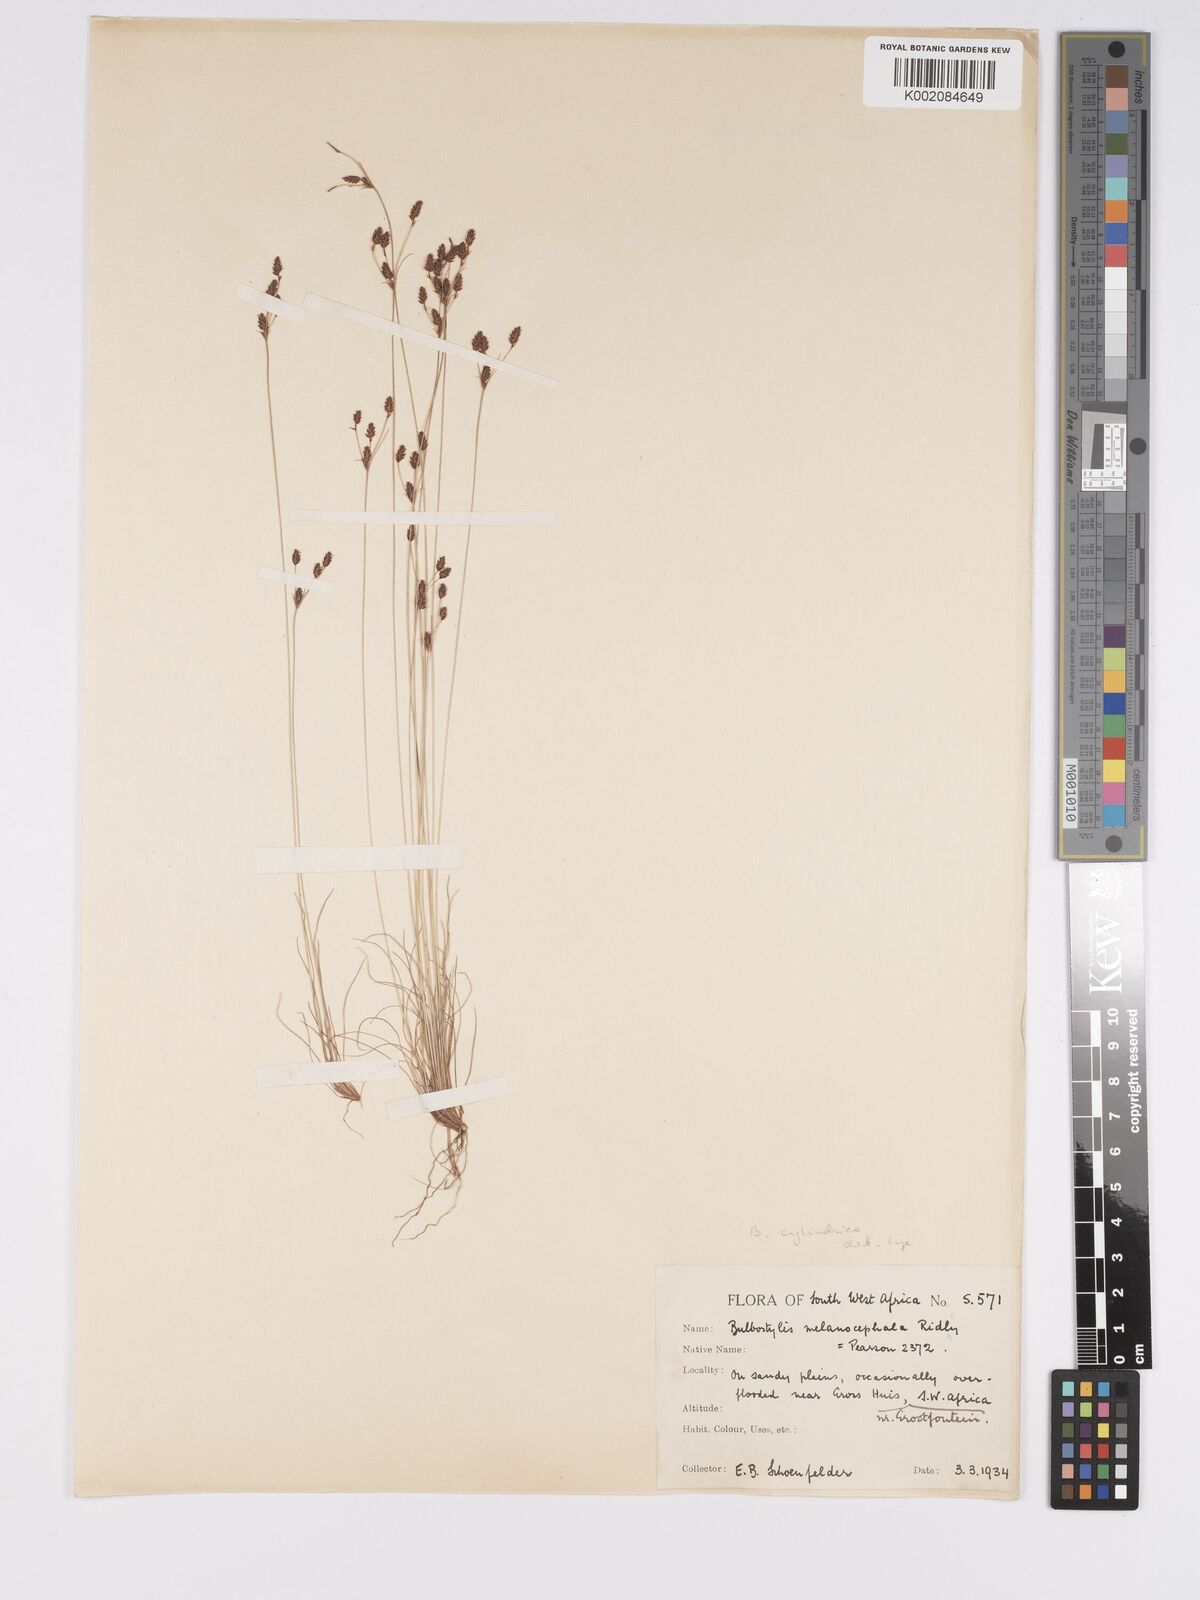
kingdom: Plantae
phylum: Tracheophyta
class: Liliopsida
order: Poales
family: Cyperaceae
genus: Bulbostylis
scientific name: Bulbostylis melanocephala
